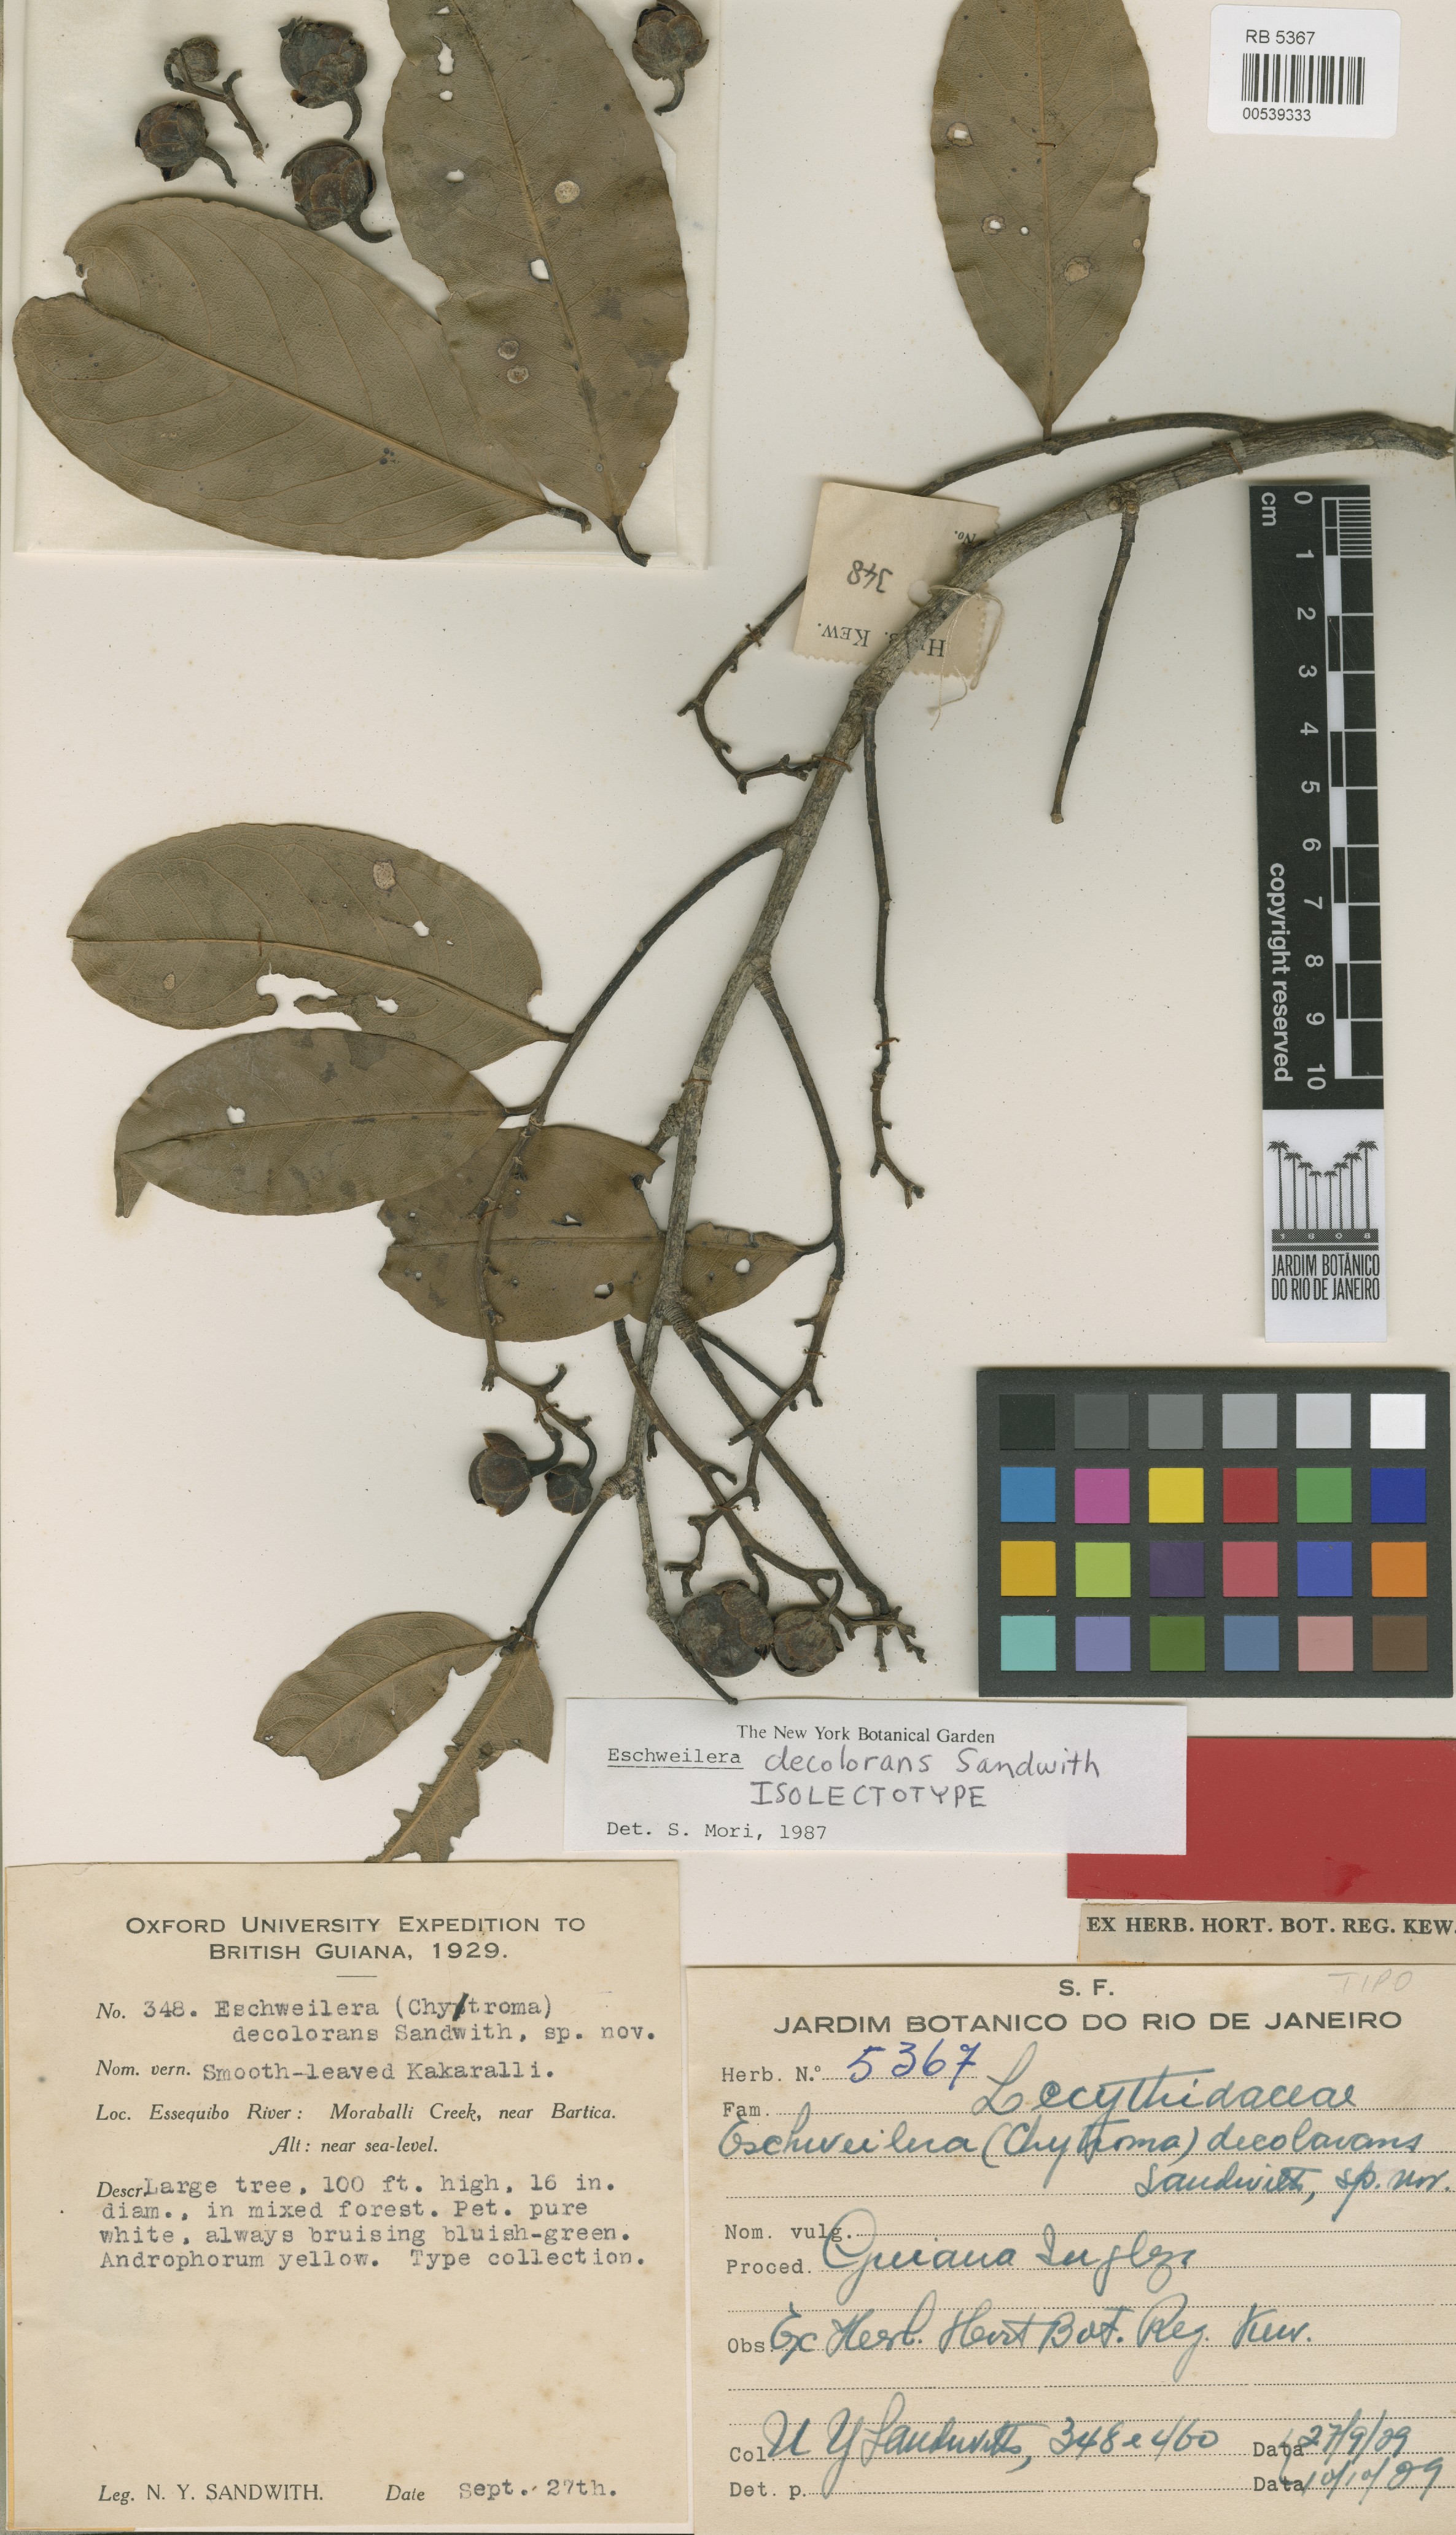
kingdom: Plantae
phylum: Tracheophyta
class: Magnoliopsida
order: Ericales
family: Lecythidaceae
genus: Eschweilera
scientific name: Eschweilera decolorans
